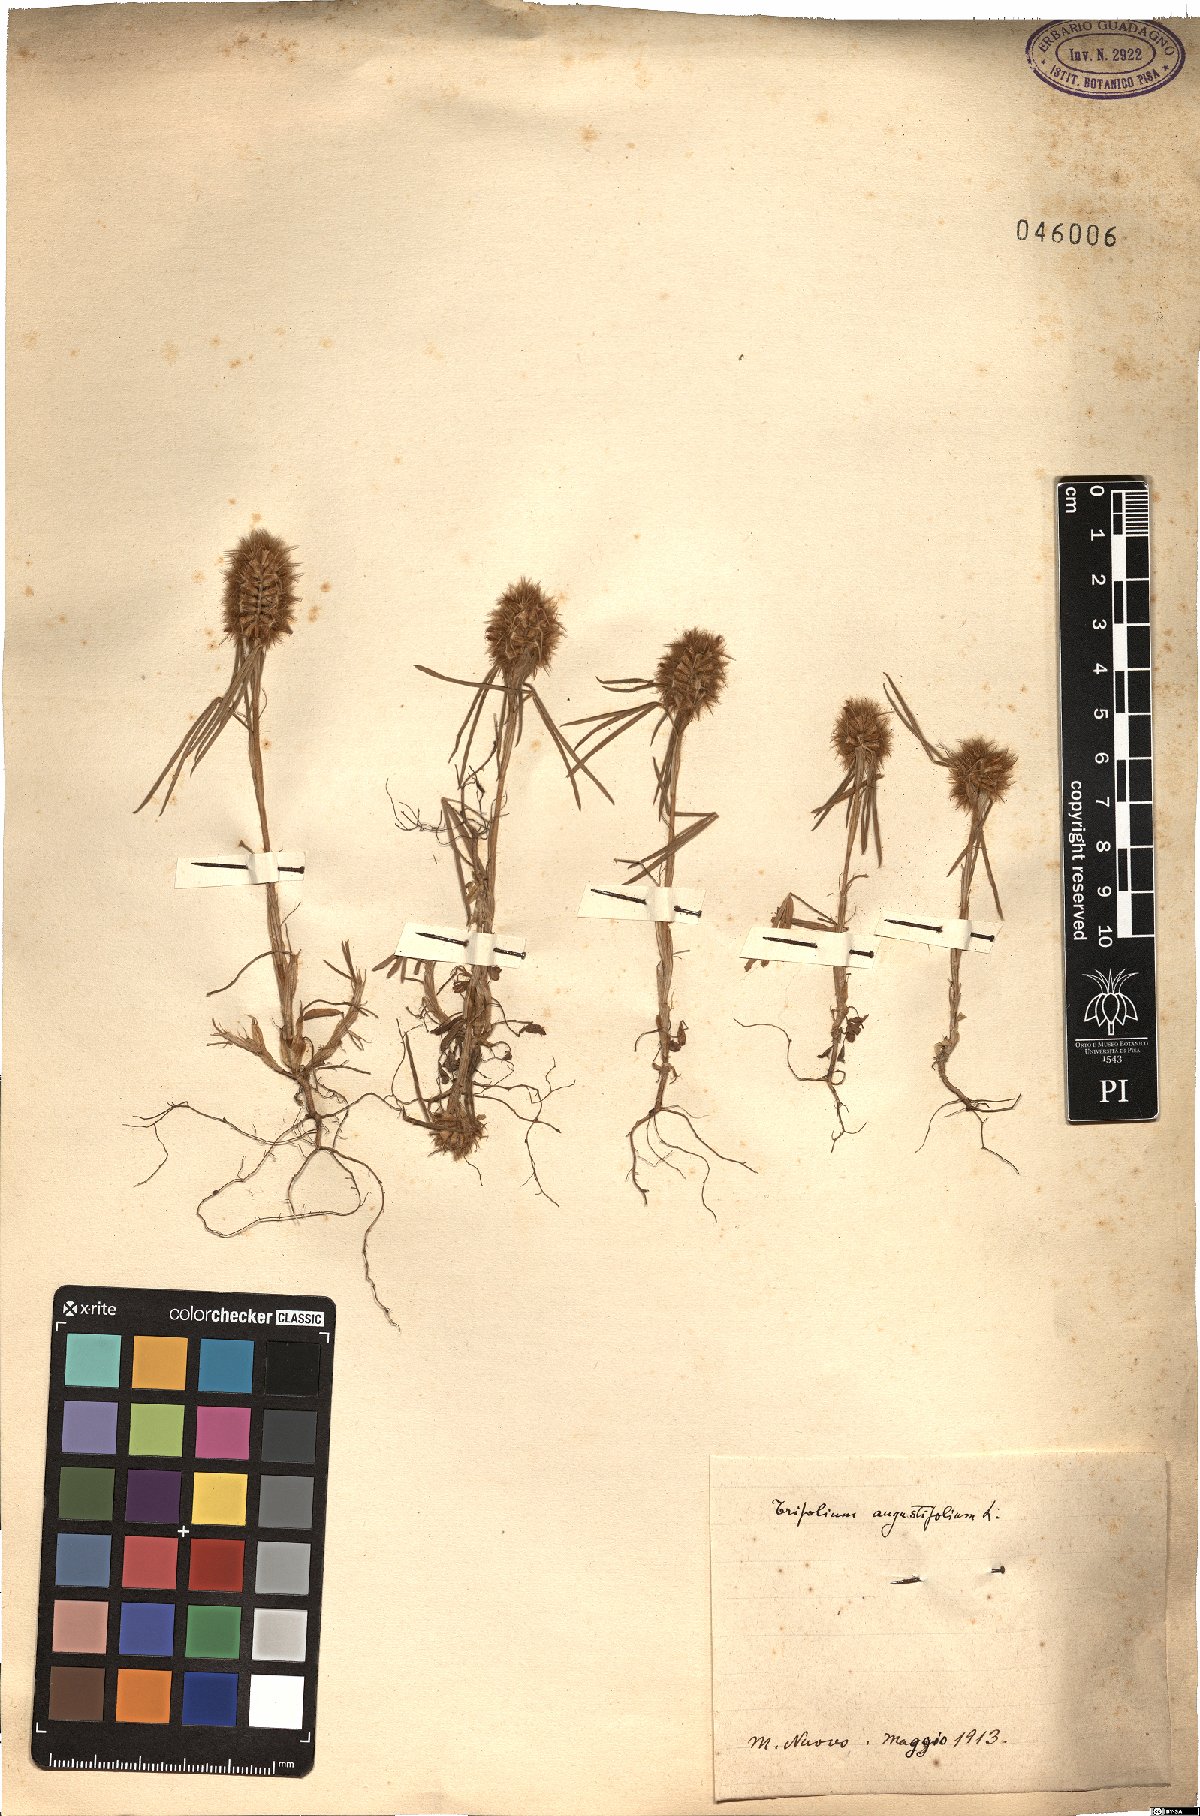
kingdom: Plantae
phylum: Tracheophyta
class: Magnoliopsida
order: Fabales
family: Fabaceae
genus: Trifolium
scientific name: Trifolium angustifolium
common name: Narrow clover
